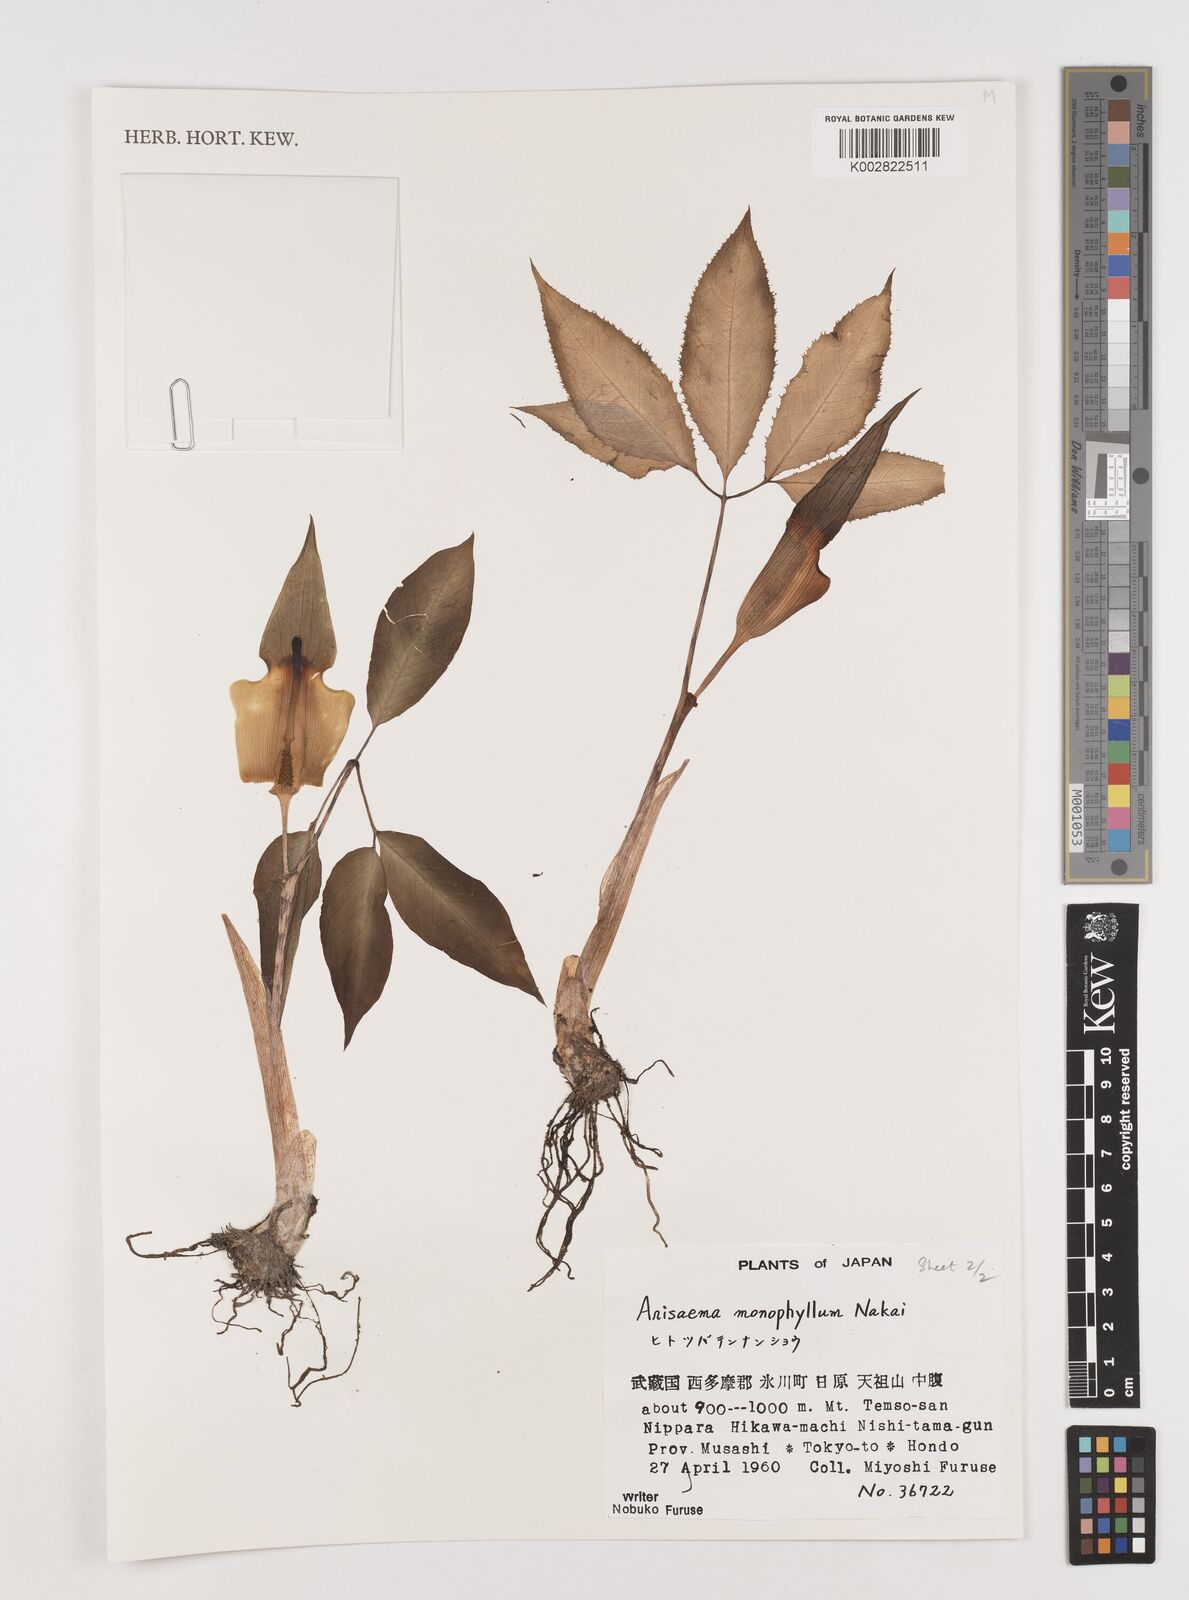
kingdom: Plantae
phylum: Tracheophyta
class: Liliopsida
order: Alismatales
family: Araceae
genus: Arisaema
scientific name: Arisaema monophyllum
